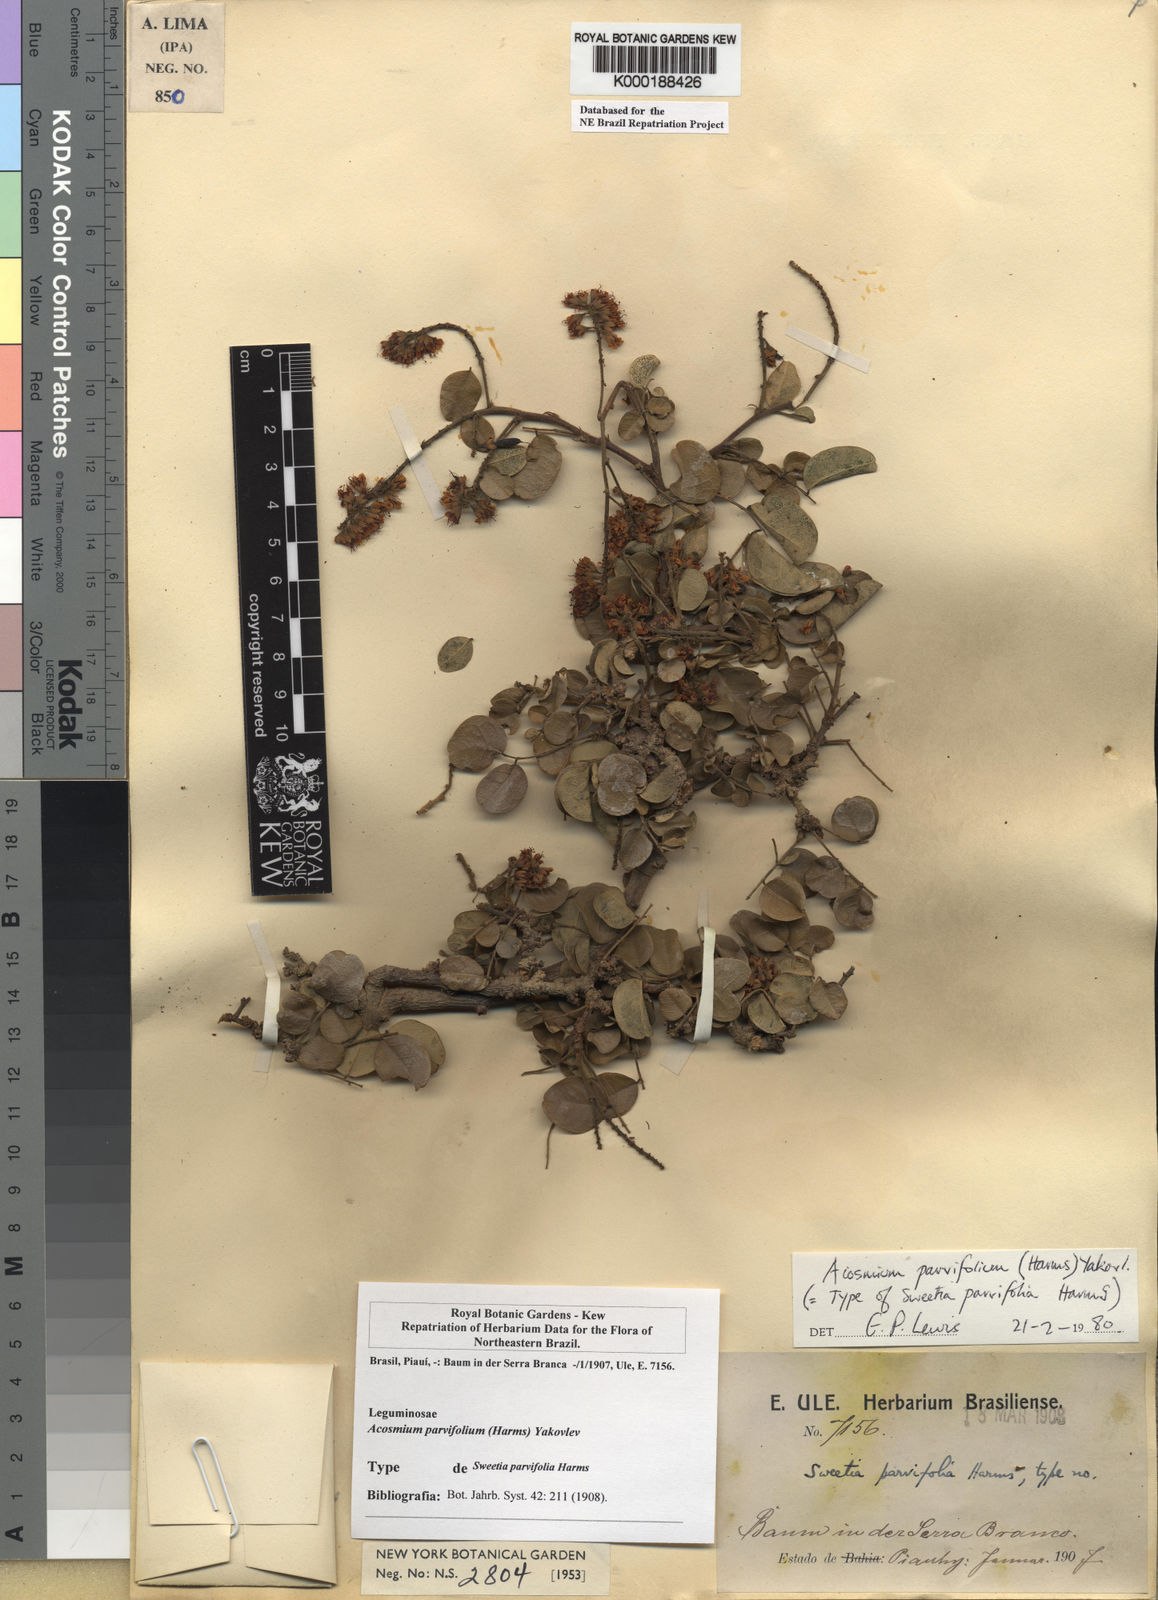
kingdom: Plantae
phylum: Tracheophyta
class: Magnoliopsida
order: Fabales
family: Fabaceae
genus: Leptolobium
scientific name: Leptolobium parvifolium
